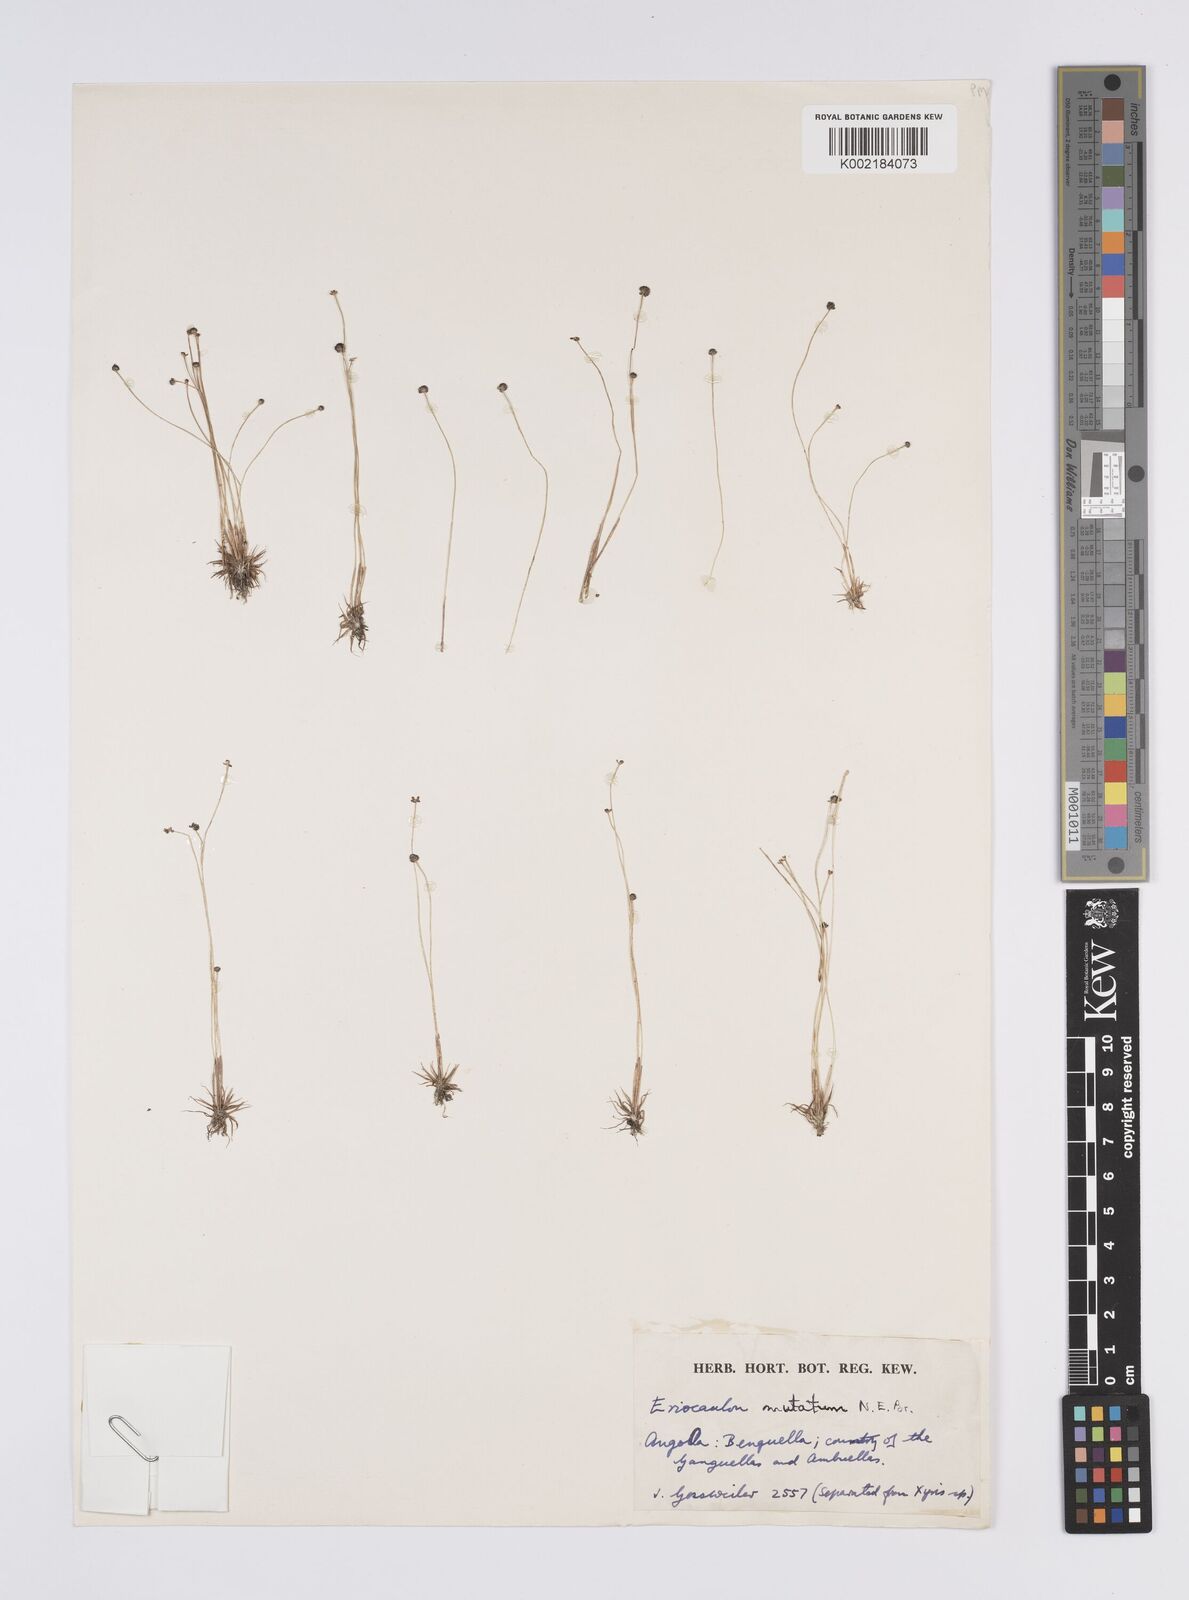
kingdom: Plantae
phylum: Tracheophyta
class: Liliopsida
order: Poales
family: Eriocaulaceae
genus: Eriocaulon
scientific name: Eriocaulon mutatum
